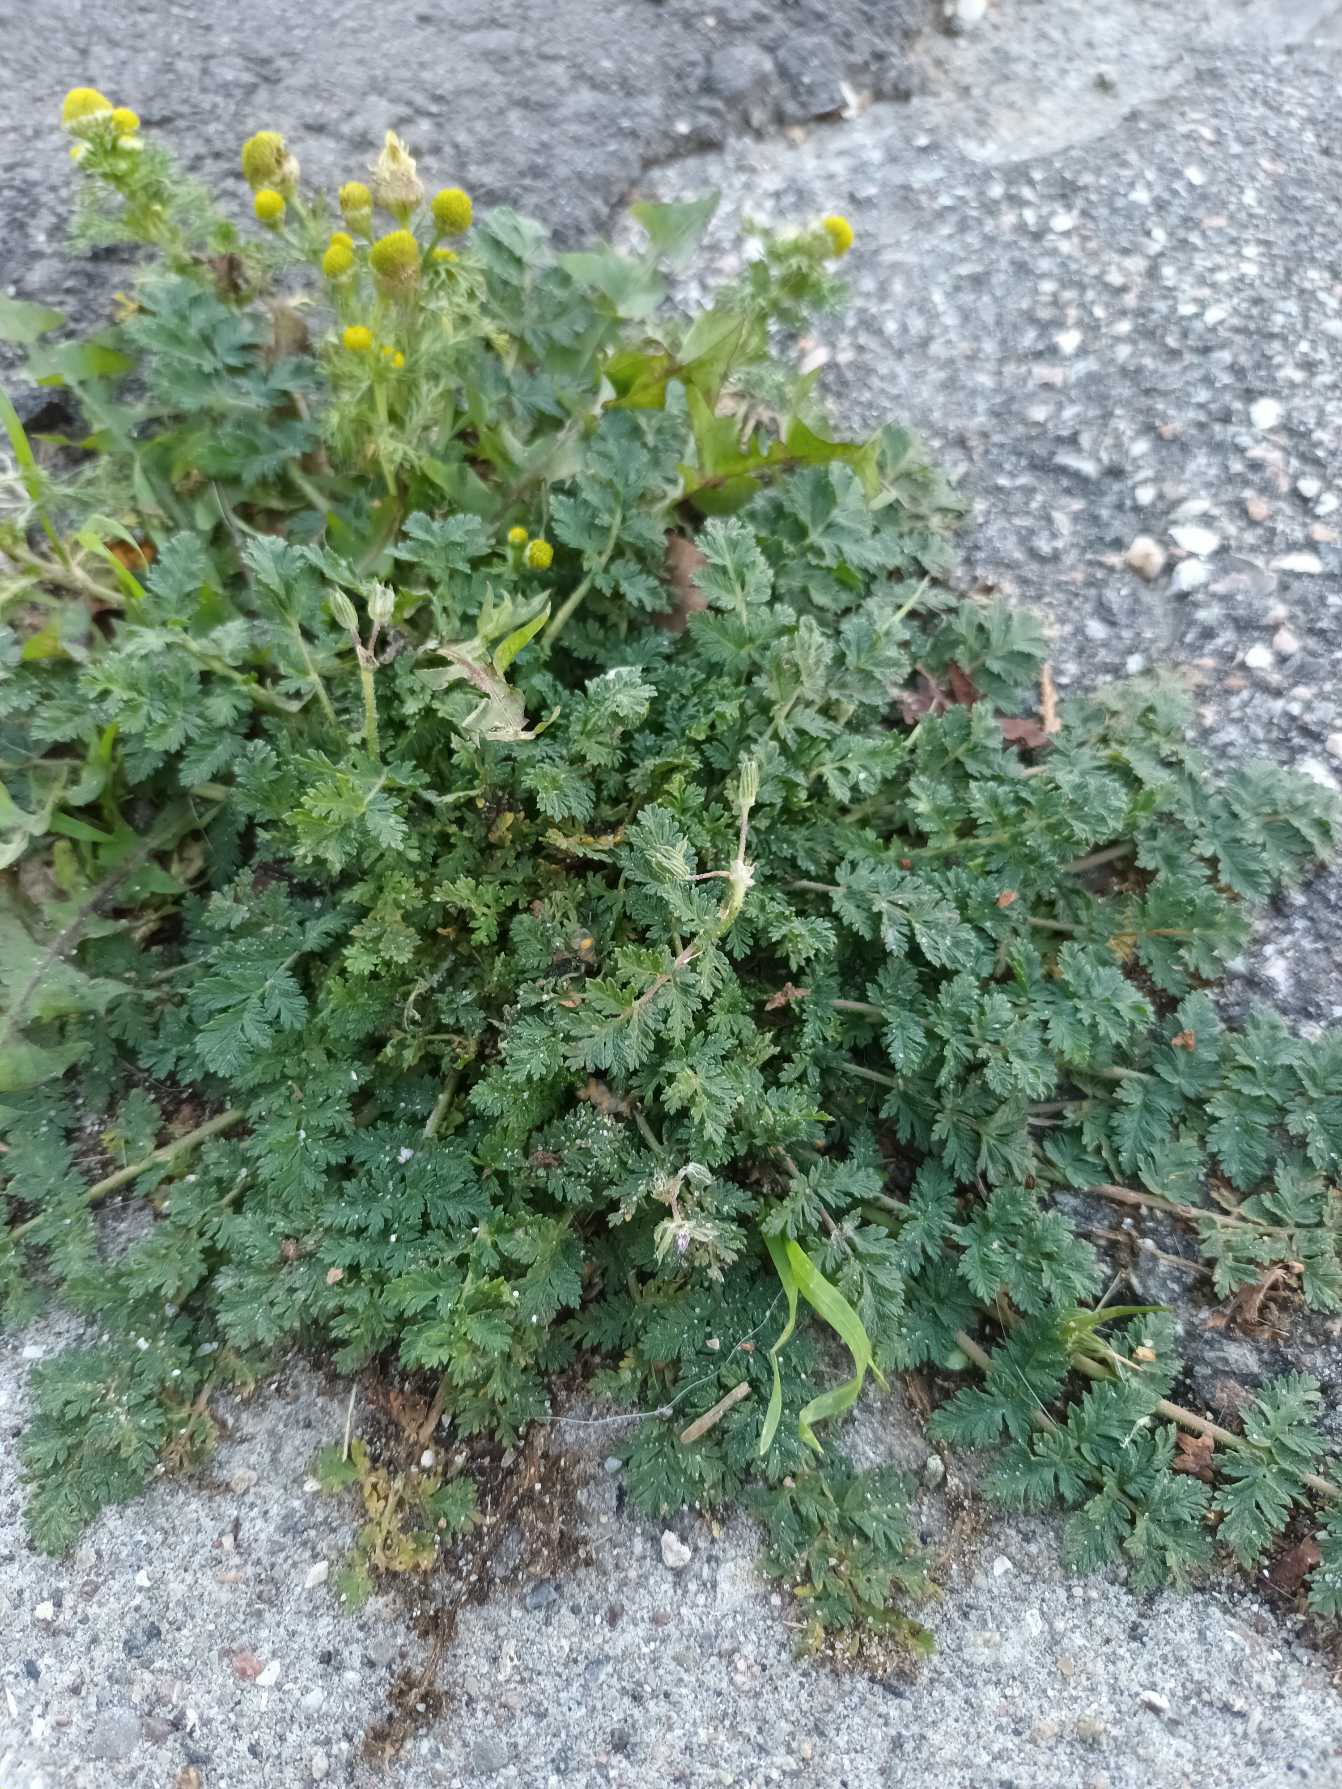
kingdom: Plantae
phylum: Tracheophyta
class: Magnoliopsida
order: Geraniales
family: Geraniaceae
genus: Erodium
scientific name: Erodium cicutarium
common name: Hejrenæb
